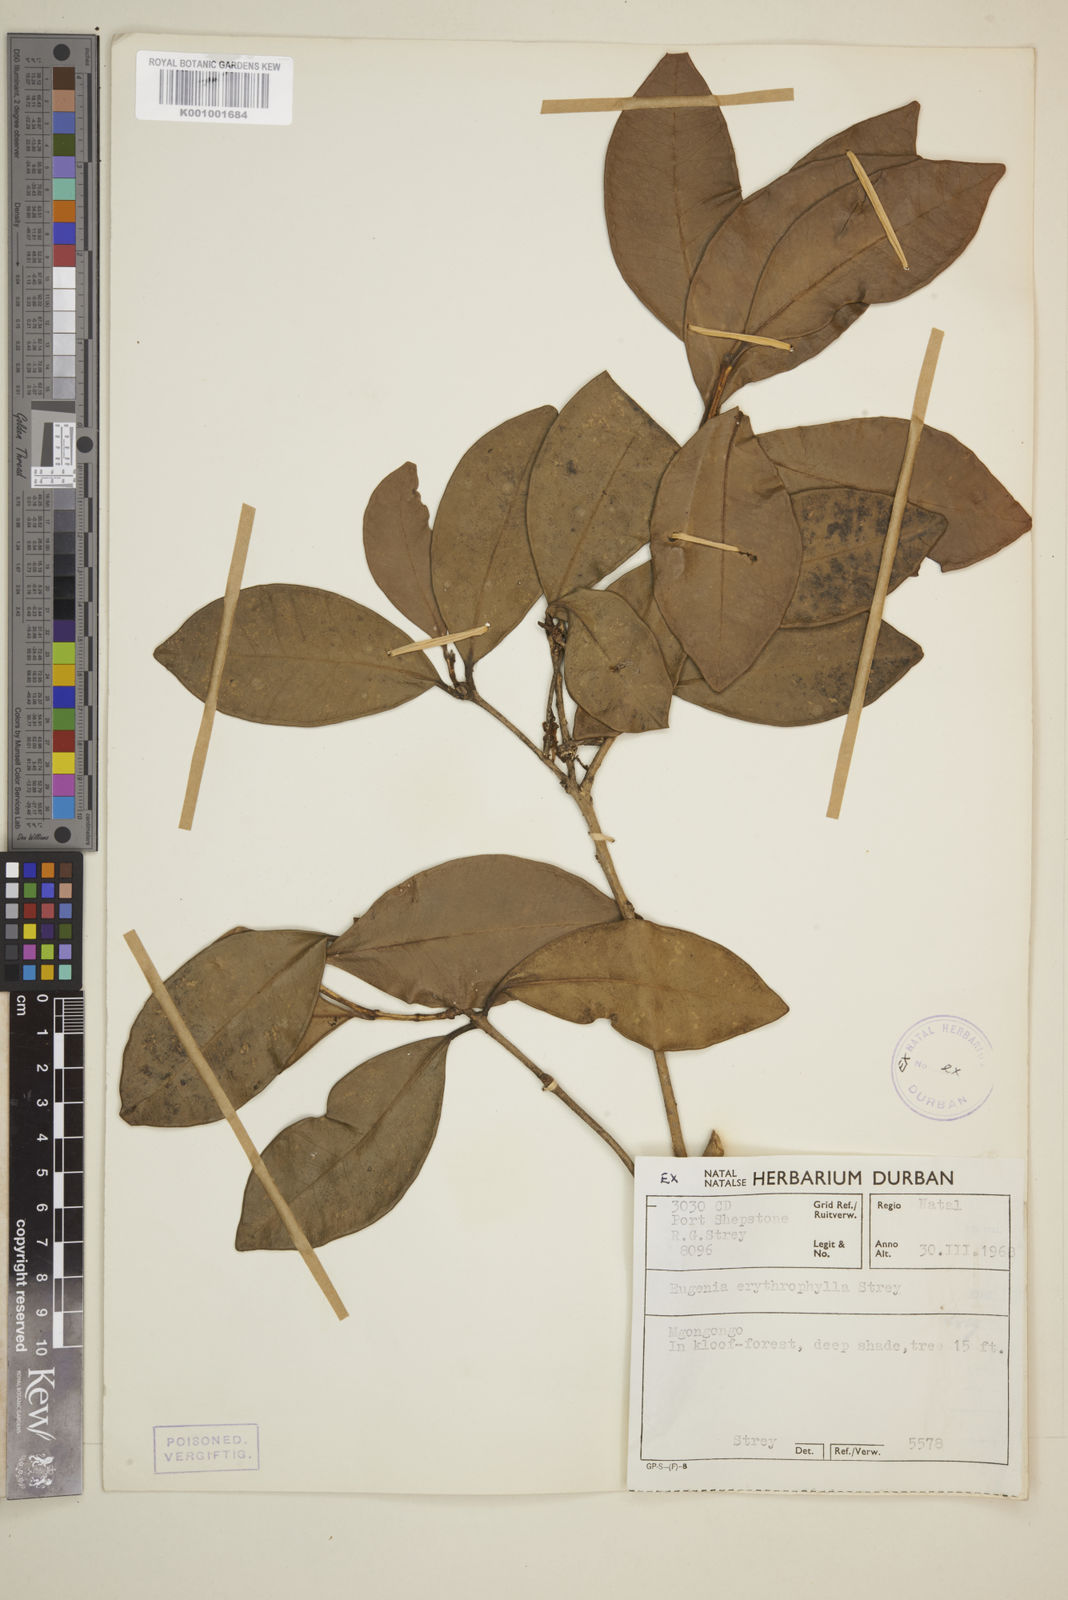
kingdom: Plantae
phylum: Tracheophyta
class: Magnoliopsida
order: Myrtales
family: Myrtaceae
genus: Eugenia
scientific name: Eugenia erythrophylla
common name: Large-leaved myrtle
